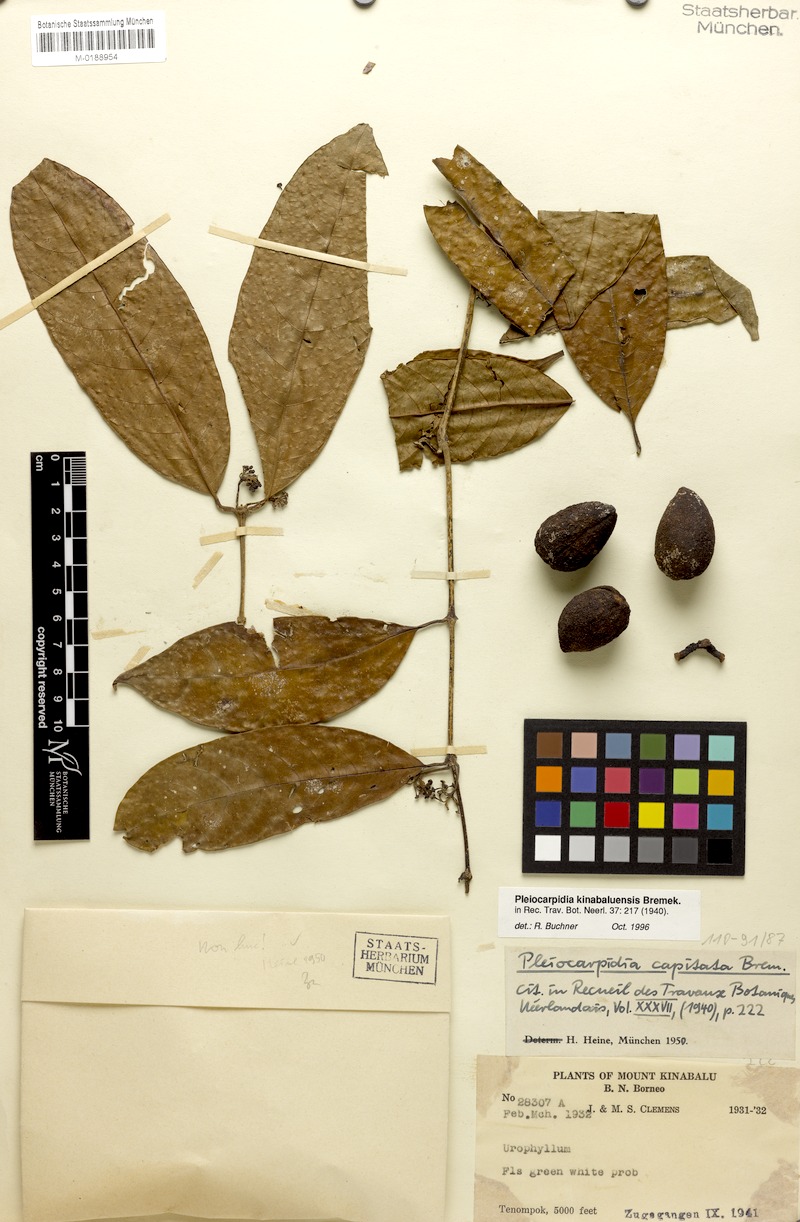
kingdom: Plantae
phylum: Tracheophyta
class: Magnoliopsida
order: Gentianales
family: Rubiaceae
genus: Urophyllum
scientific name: Urophyllum kinabaluense
